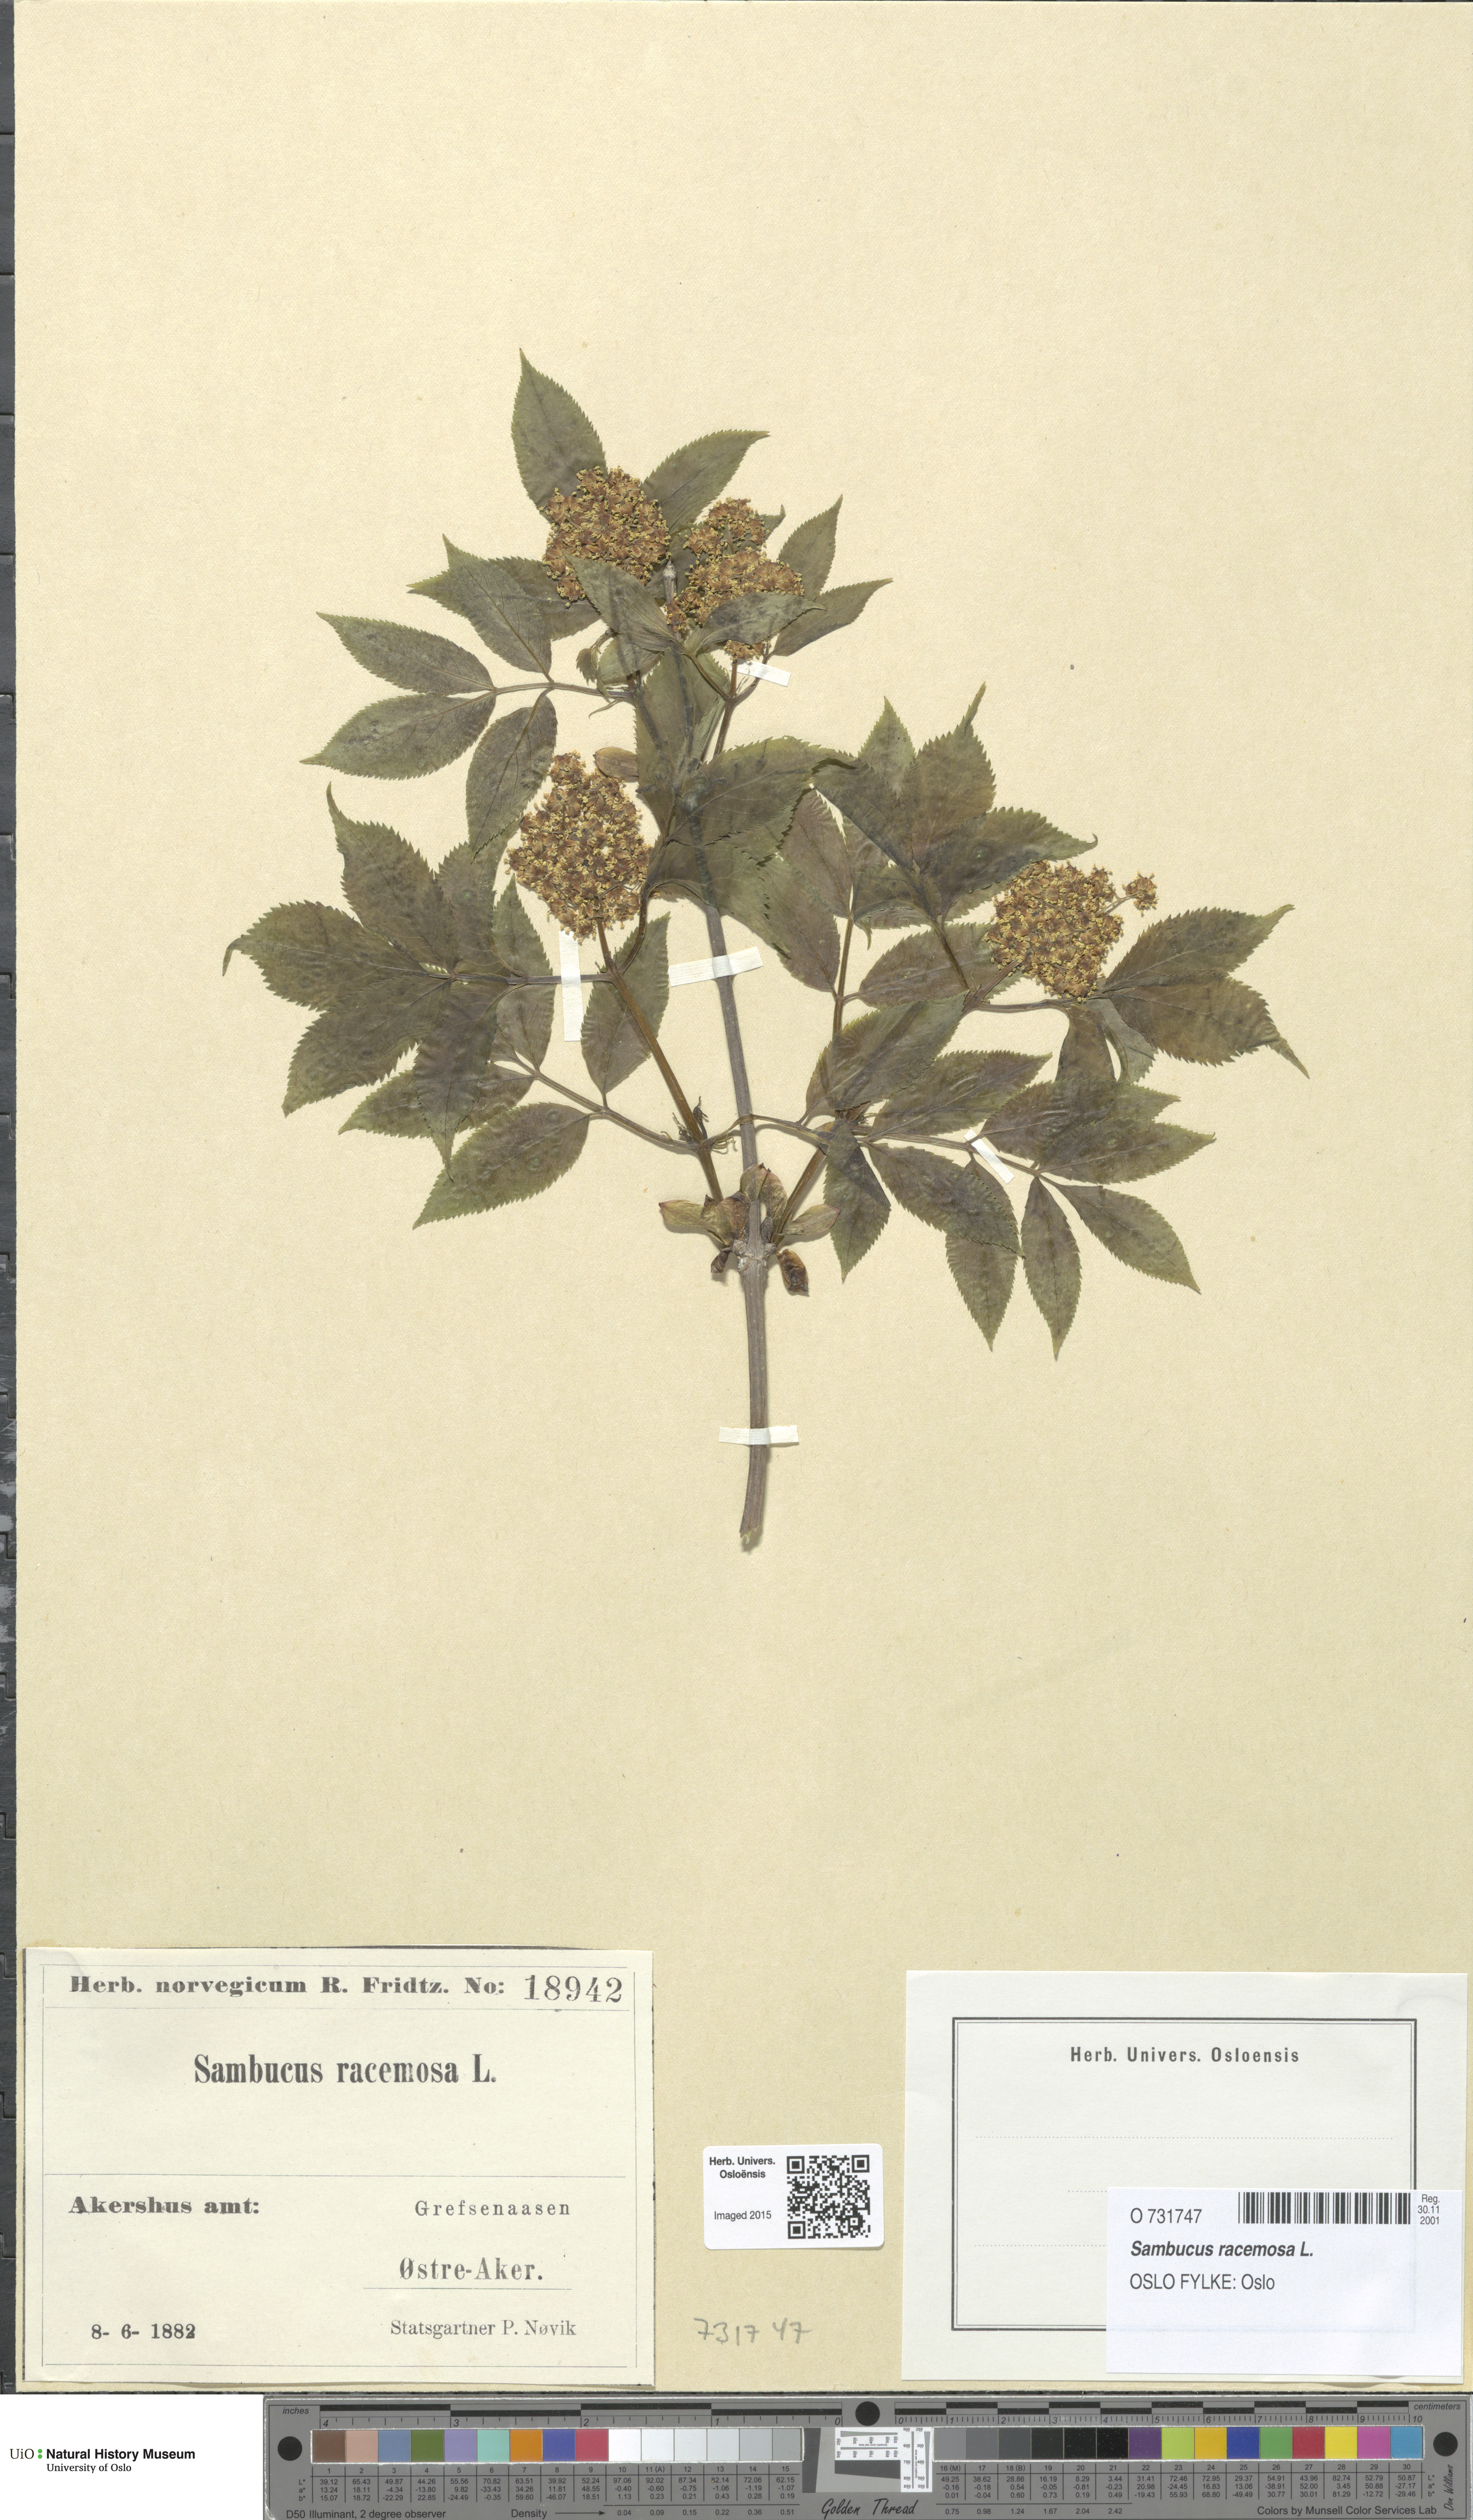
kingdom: Plantae
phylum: Tracheophyta
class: Magnoliopsida
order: Dipsacales
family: Viburnaceae
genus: Sambucus
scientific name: Sambucus racemosa
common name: Red-berried elder
